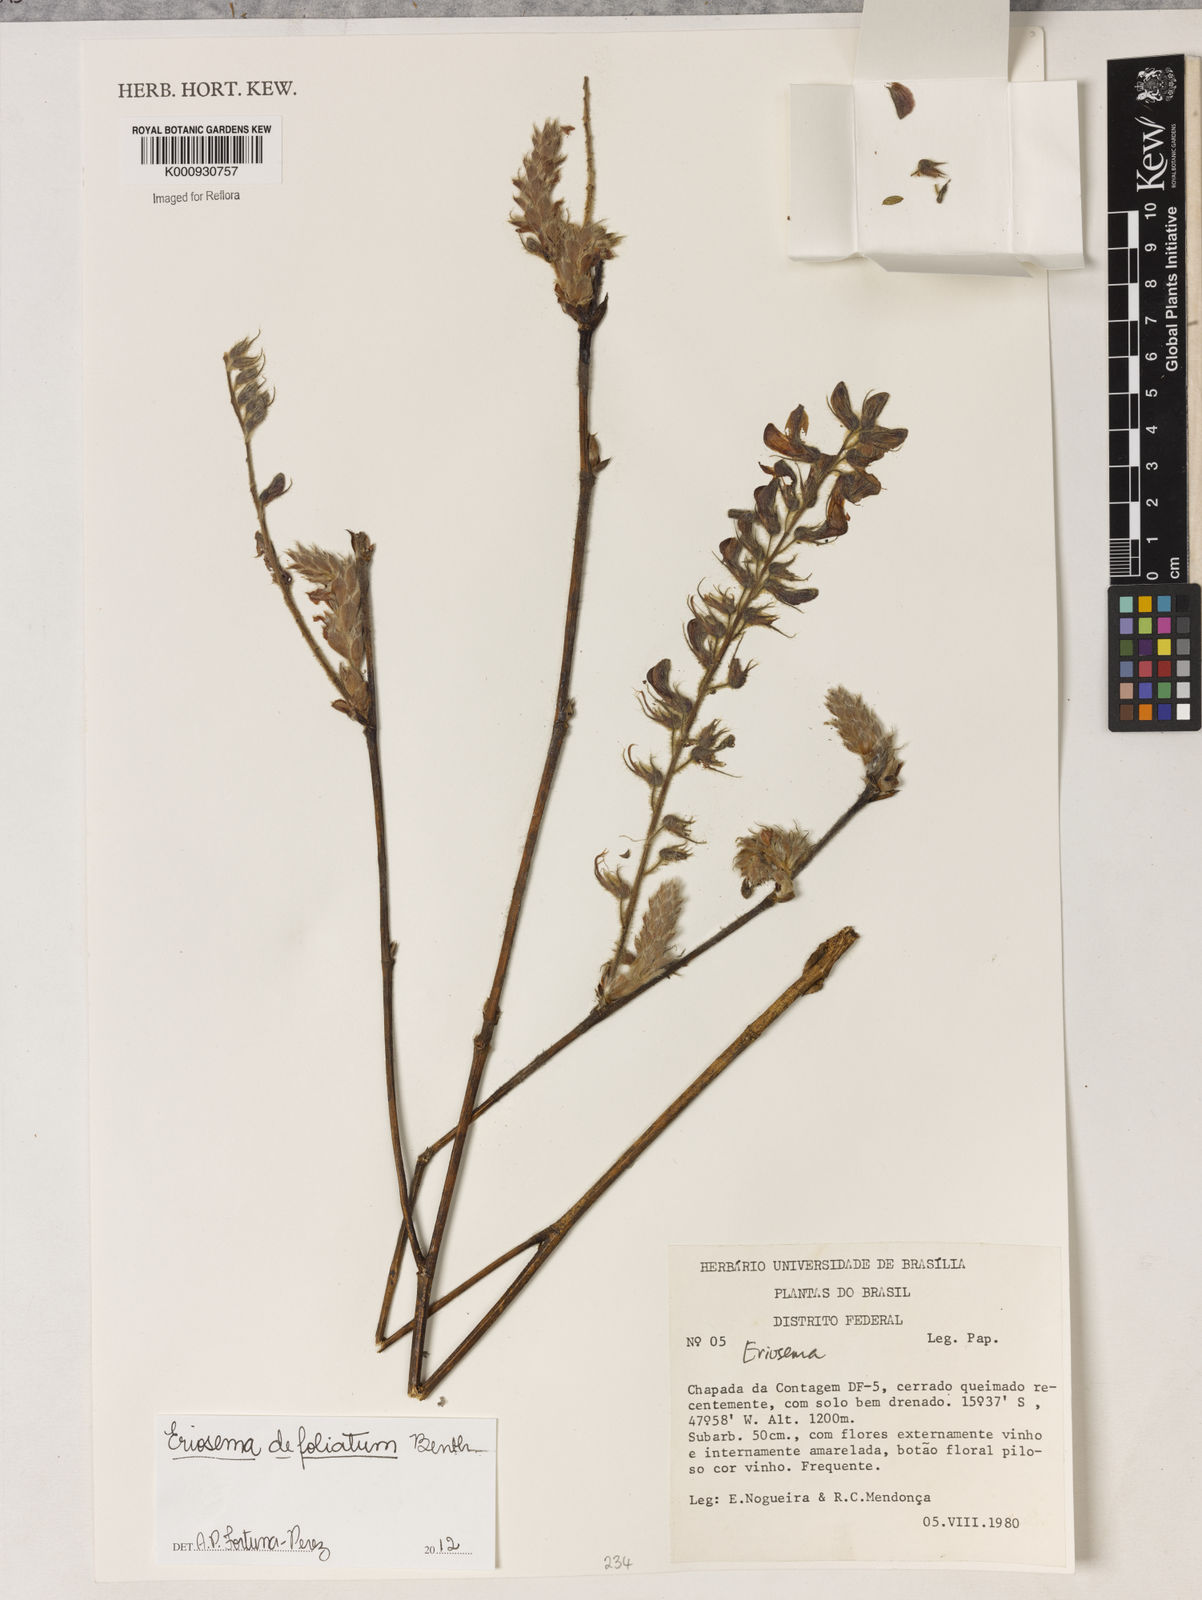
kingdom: Plantae
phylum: Tracheophyta
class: Magnoliopsida
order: Fabales
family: Fabaceae
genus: Eriosema
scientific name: Eriosema defoliatum
